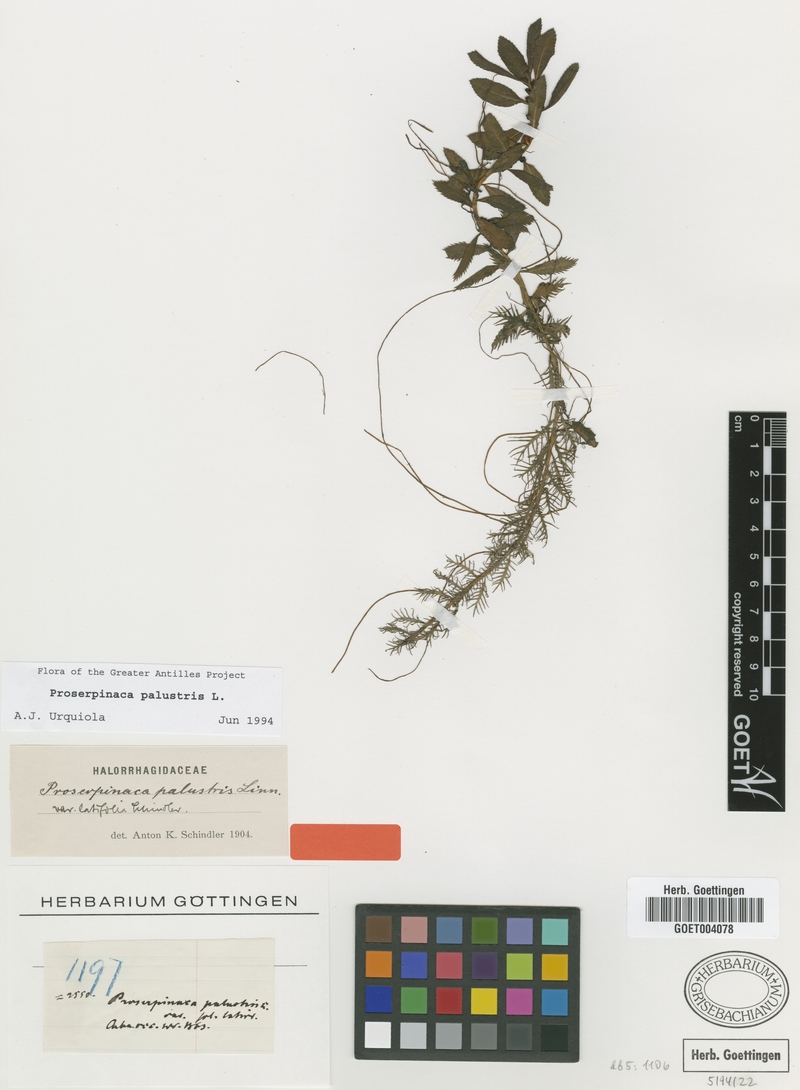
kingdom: Plantae
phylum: Tracheophyta
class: Magnoliopsida
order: Saxifragales
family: Haloragaceae
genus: Proserpinaca
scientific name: Proserpinaca palustris
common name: Marsh mermaidweed
